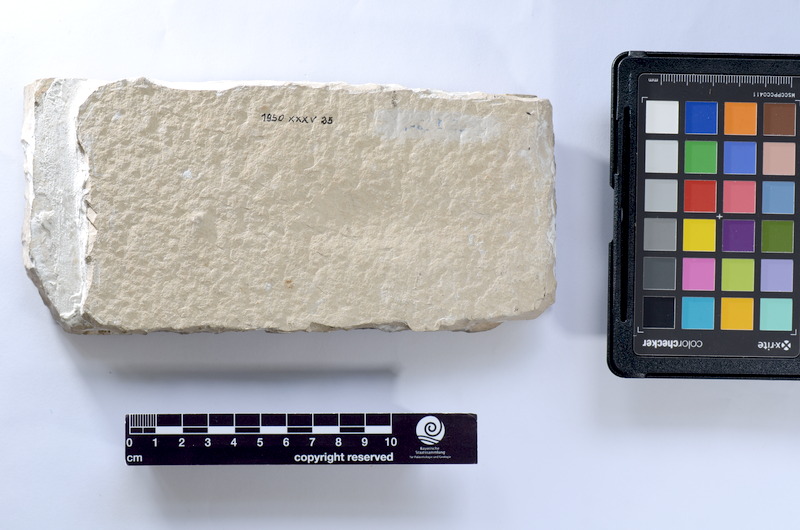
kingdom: Animalia
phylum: Chordata
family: Ascalaboidae
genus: Tharsis
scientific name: Tharsis dubius
